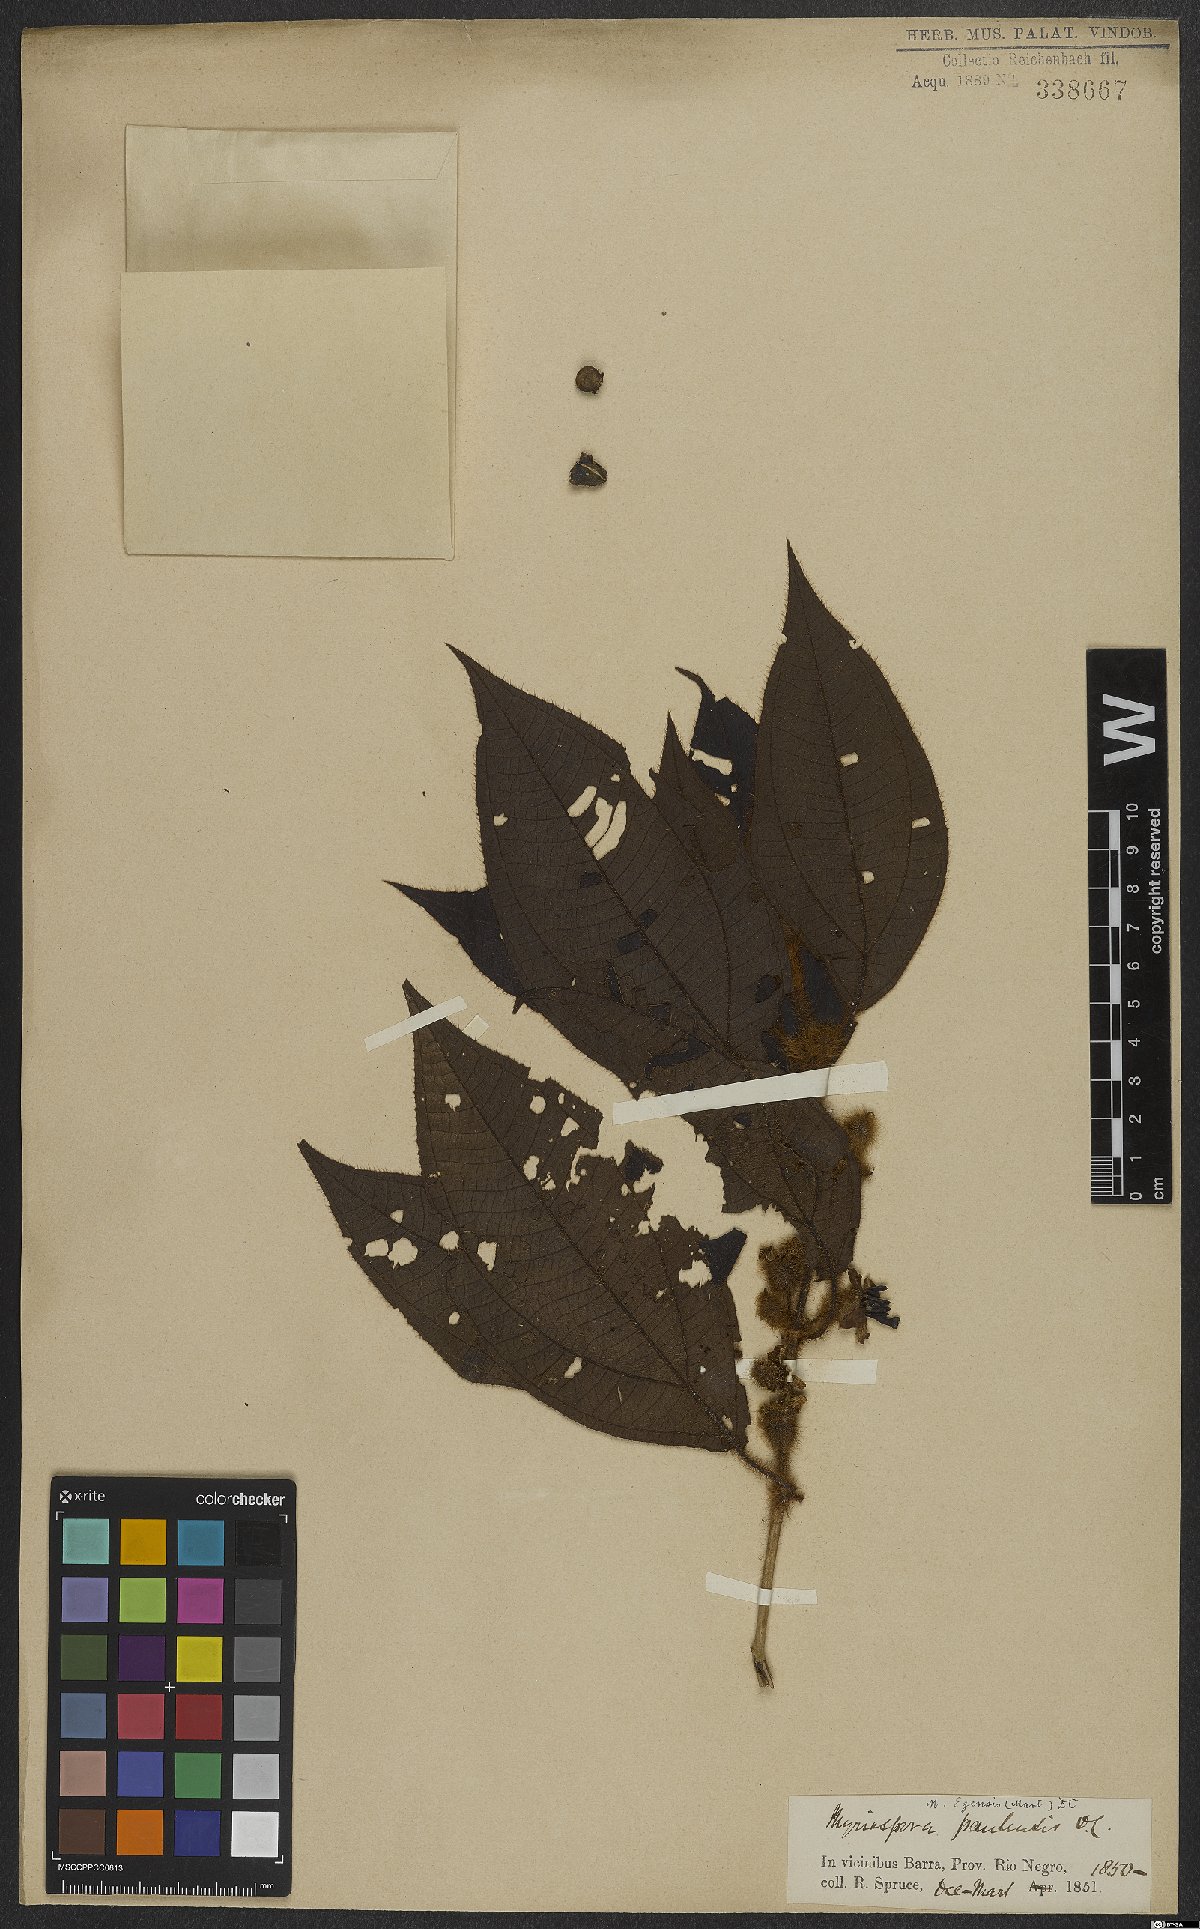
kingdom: Plantae
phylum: Tracheophyta
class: Magnoliopsida
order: Myrtales
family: Melastomataceae
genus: Bellucia
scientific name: Bellucia egensis
